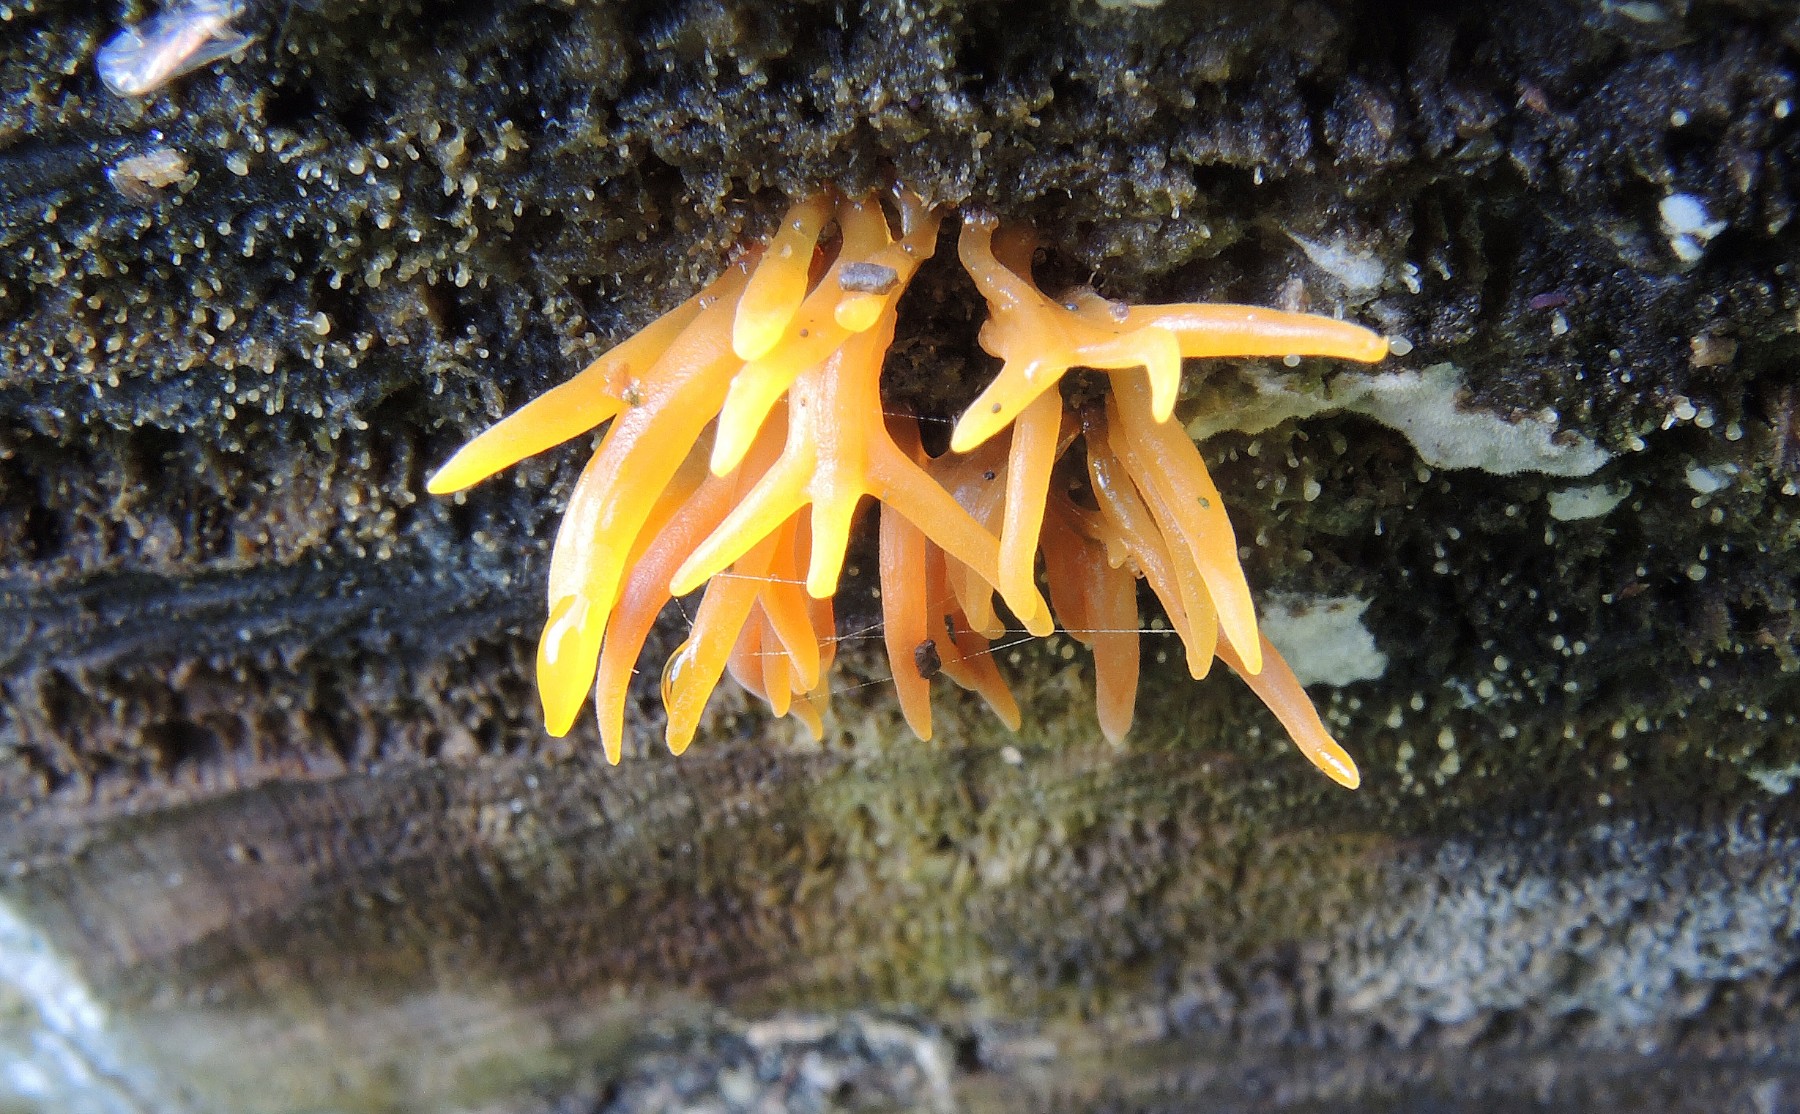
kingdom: Fungi
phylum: Basidiomycota
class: Dacrymycetes
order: Dacrymycetales
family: Dacrymycetaceae
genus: Calocera
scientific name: Calocera
